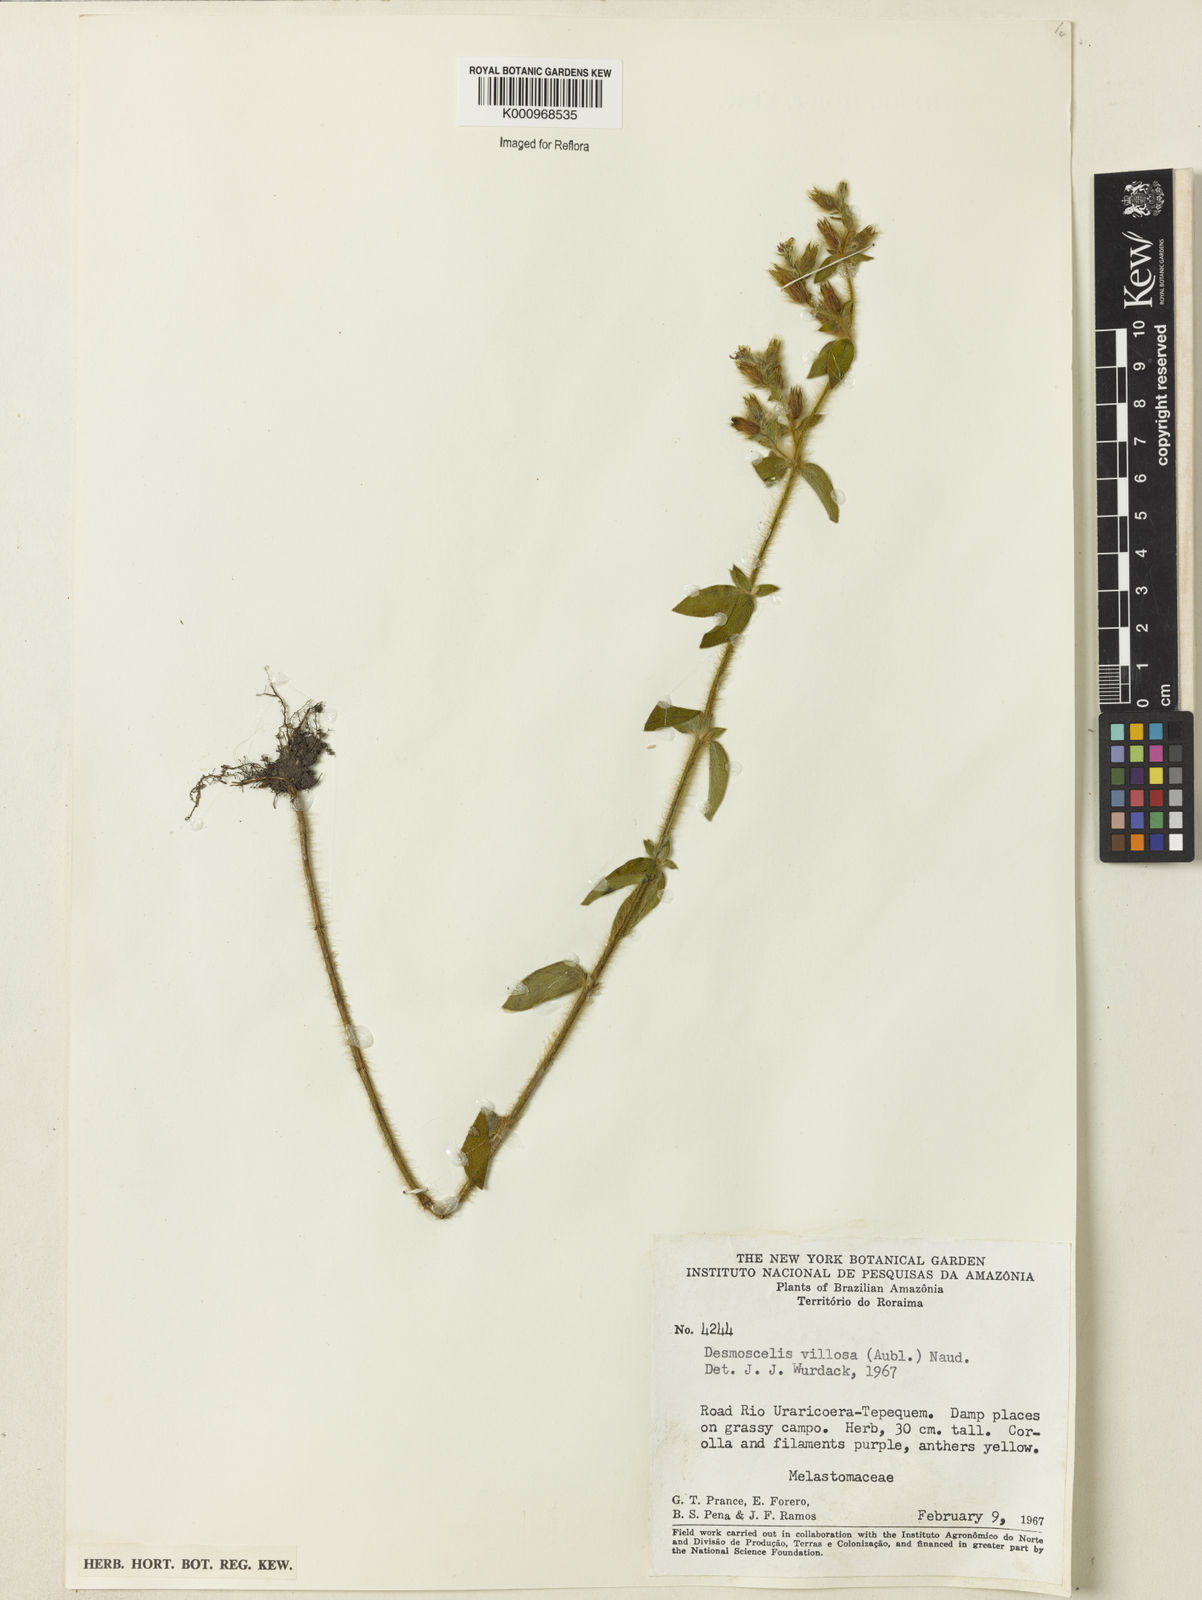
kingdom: Plantae
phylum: Tracheophyta
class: Magnoliopsida
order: Myrtales
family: Melastomataceae
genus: Desmoscelis
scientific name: Desmoscelis villosa
